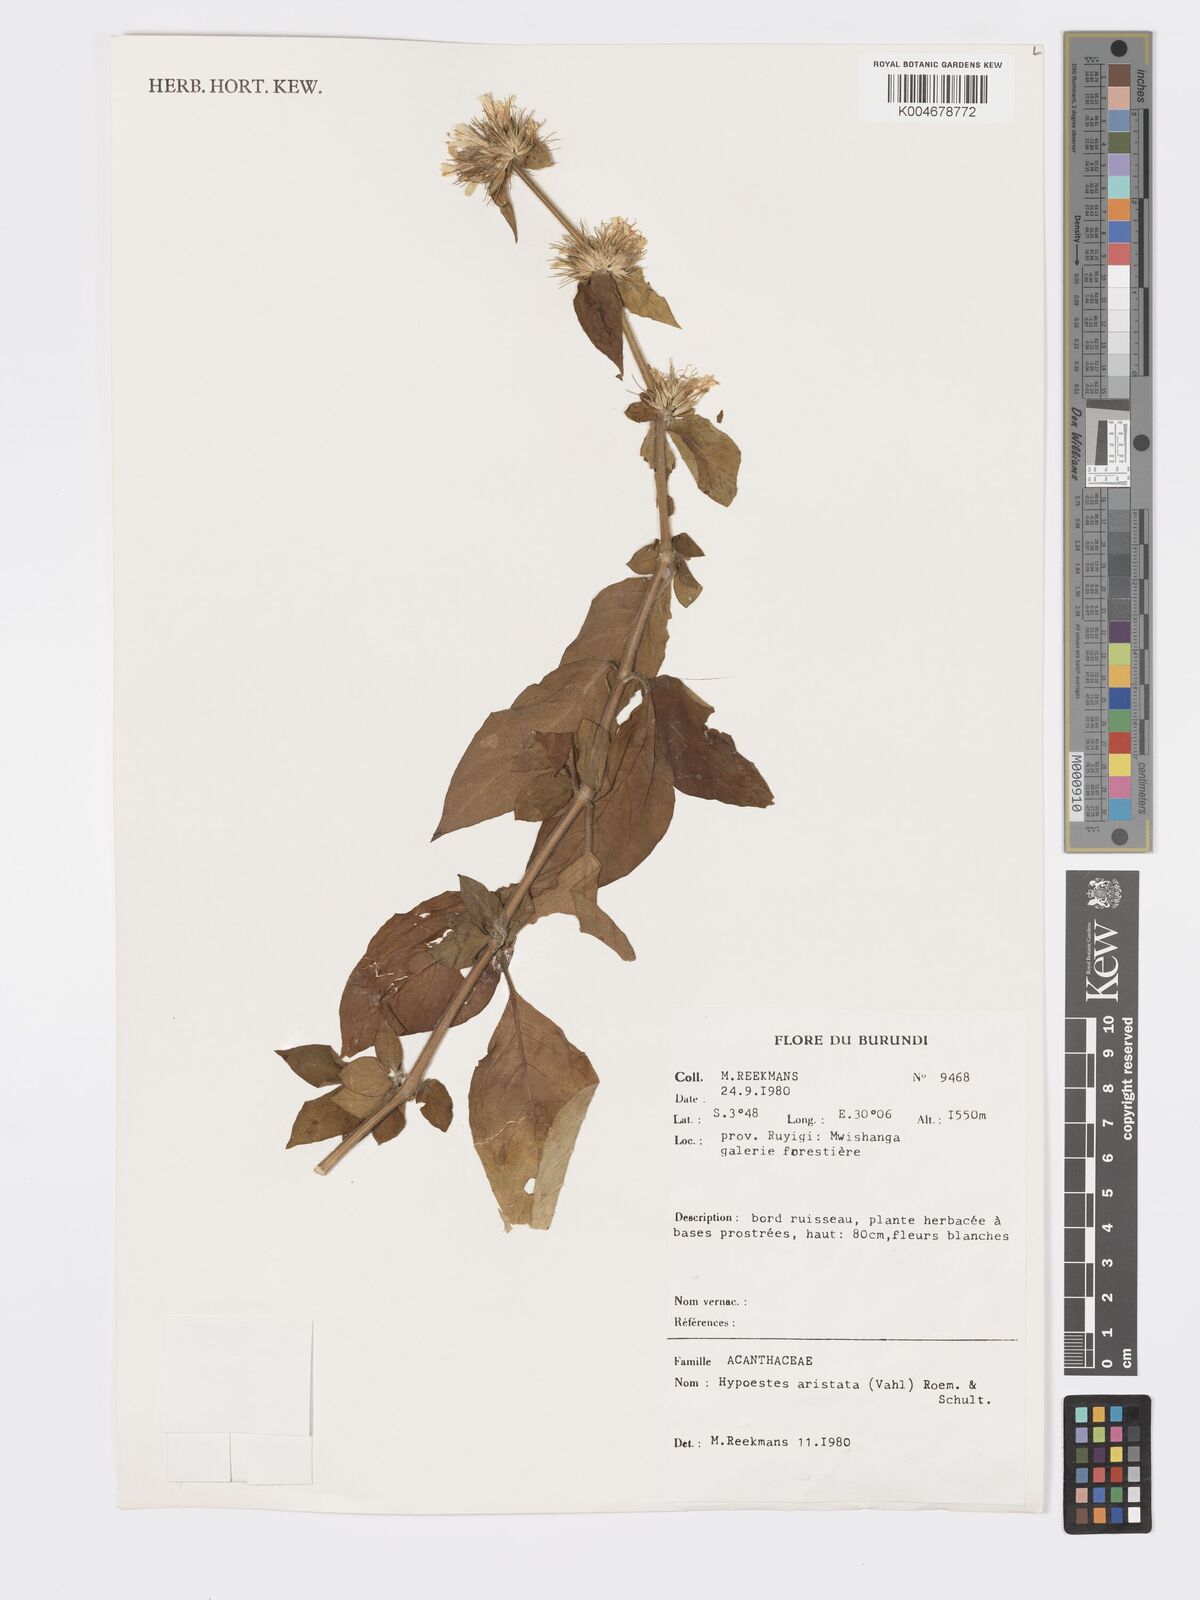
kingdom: Plantae
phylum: Tracheophyta
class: Magnoliopsida
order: Lamiales
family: Acanthaceae
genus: Hypoestes
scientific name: Hypoestes aristata
